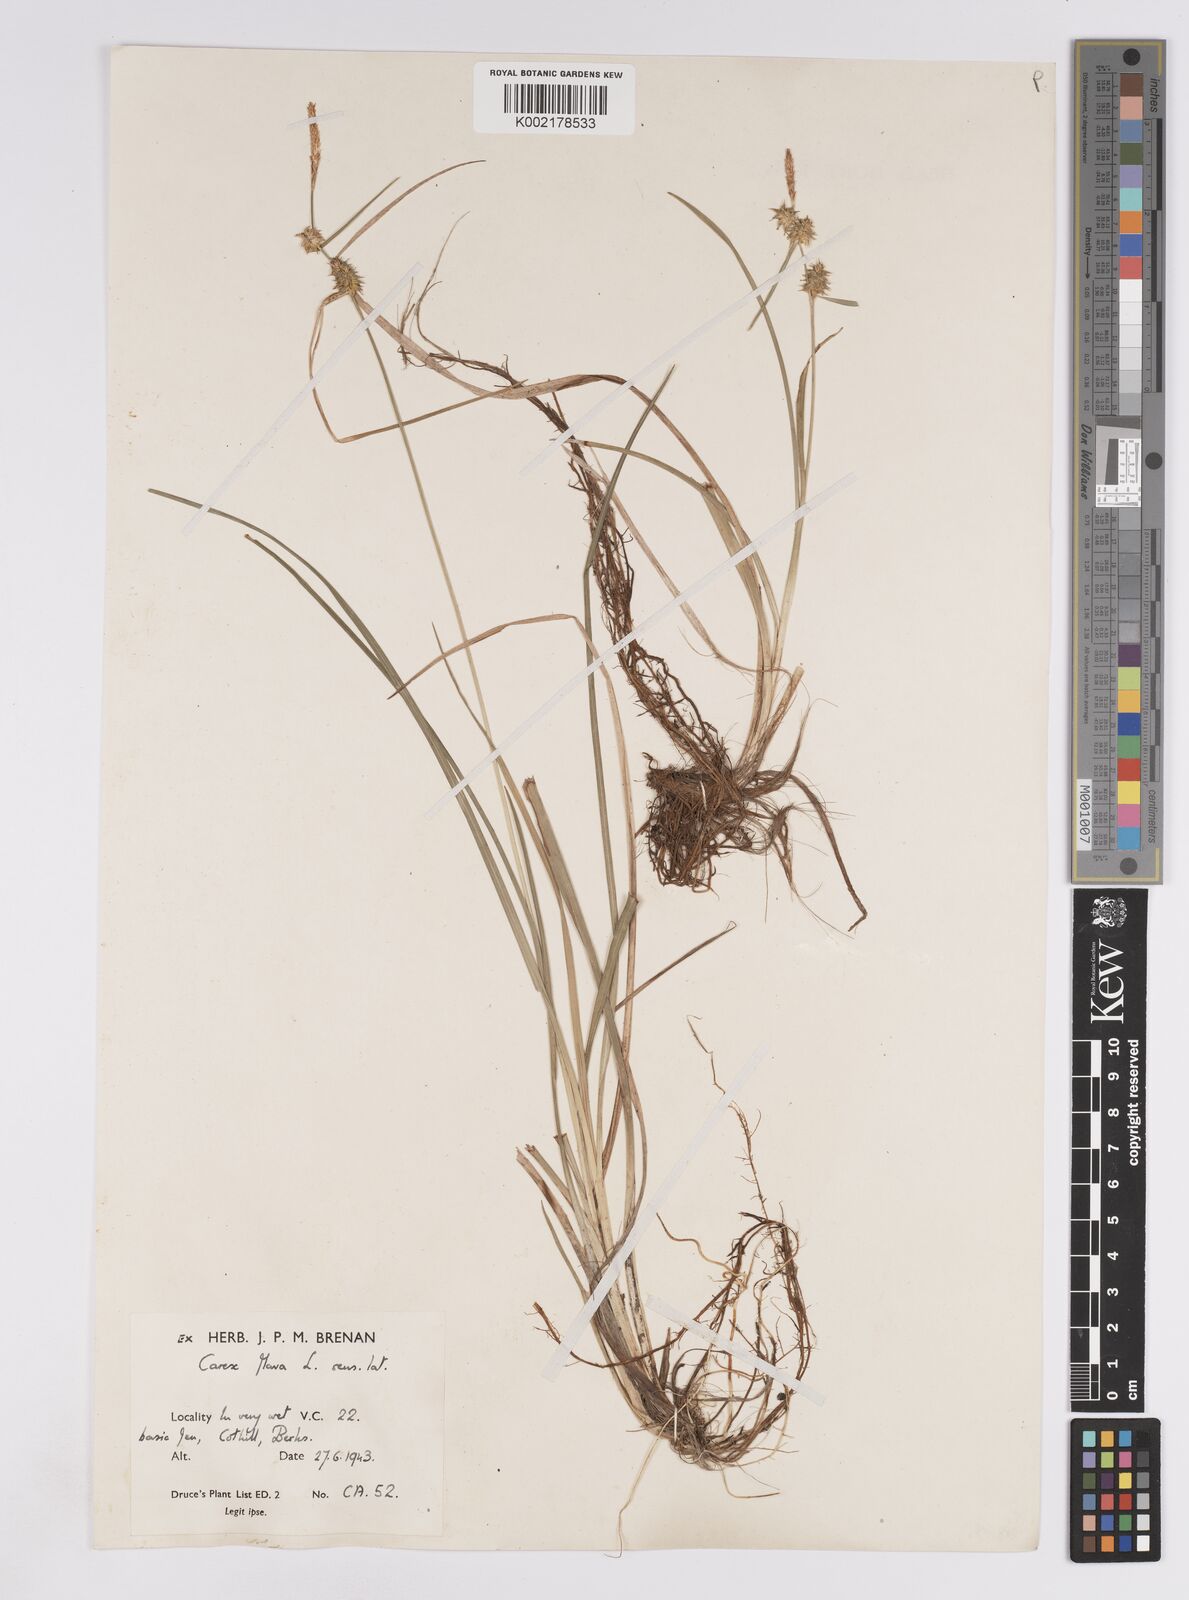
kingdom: Plantae
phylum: Tracheophyta
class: Liliopsida
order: Poales
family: Cyperaceae
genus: Carex
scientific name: Carex lepidocarpa
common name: Long-stalked yellow-sedge
